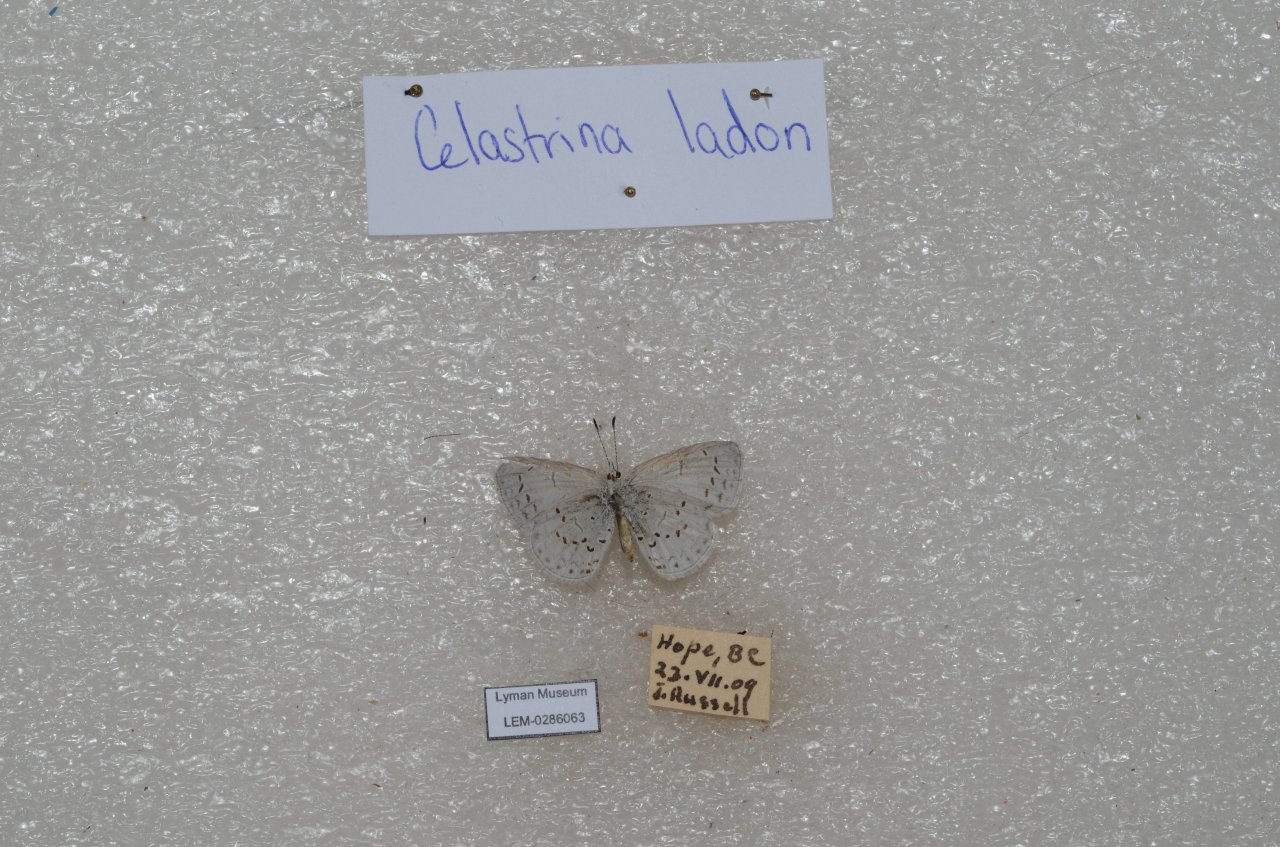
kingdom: Animalia
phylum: Arthropoda
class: Insecta
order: Lepidoptera
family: Lycaenidae
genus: Celastrina
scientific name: Celastrina
